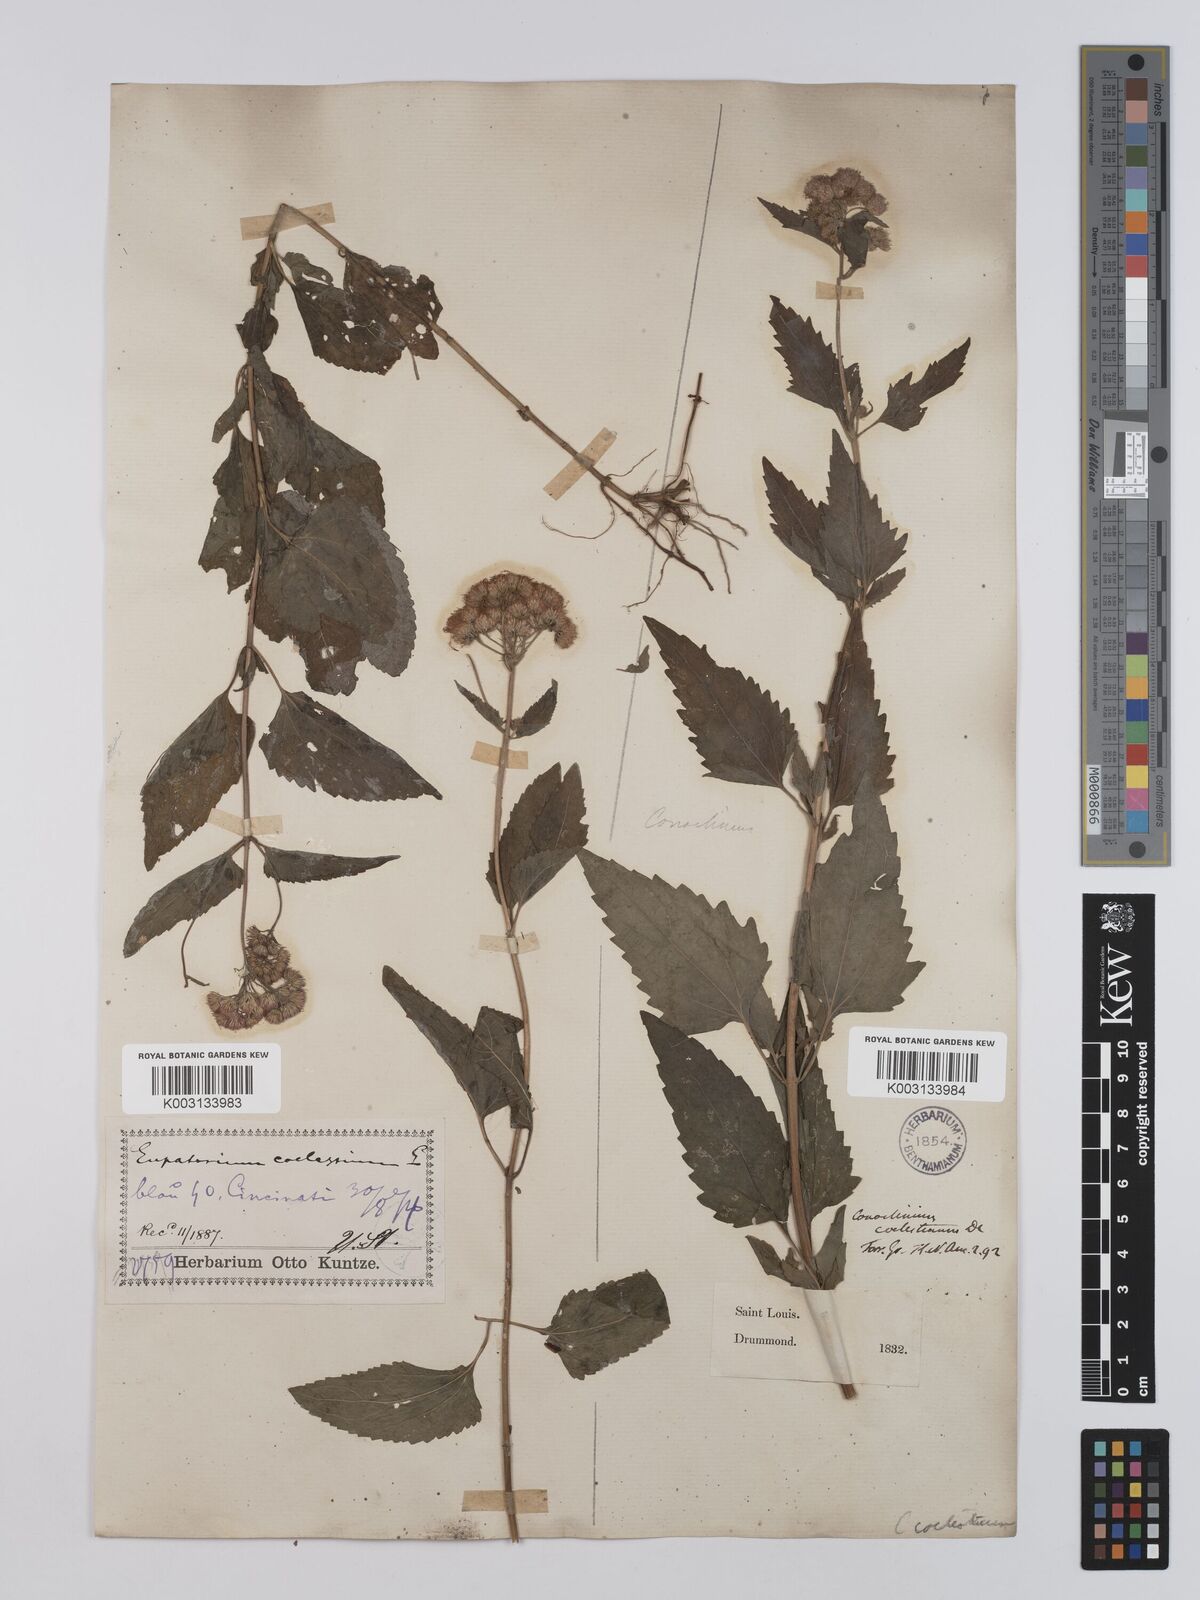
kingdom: Plantae
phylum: Tracheophyta
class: Magnoliopsida
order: Asterales
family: Asteraceae
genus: Conoclinium
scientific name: Conoclinium coelestinum
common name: Blue mistflower
